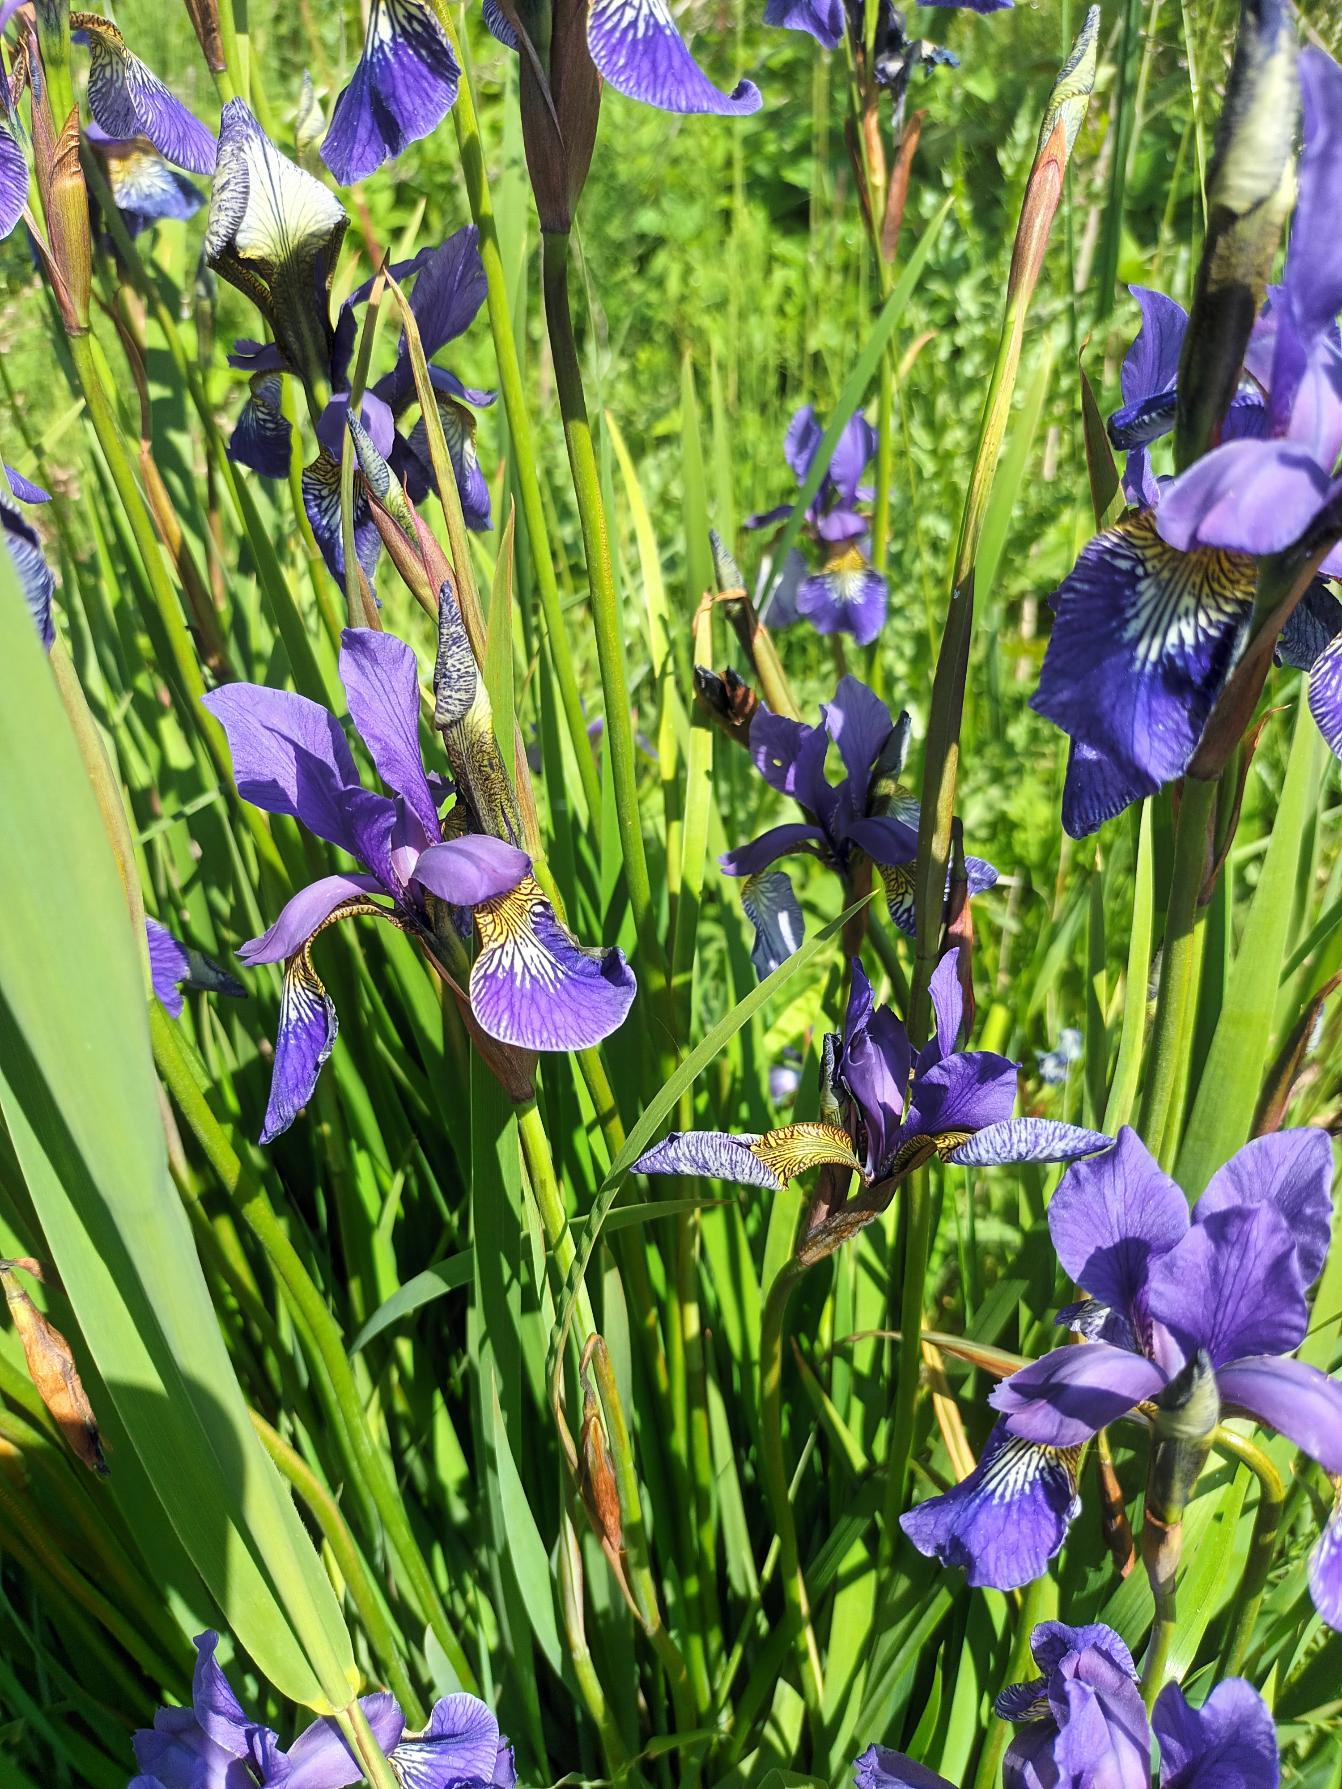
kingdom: Plantae
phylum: Tracheophyta
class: Liliopsida
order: Asparagales
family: Iridaceae
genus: Iris
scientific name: Iris sanguinea
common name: Viol-iris
